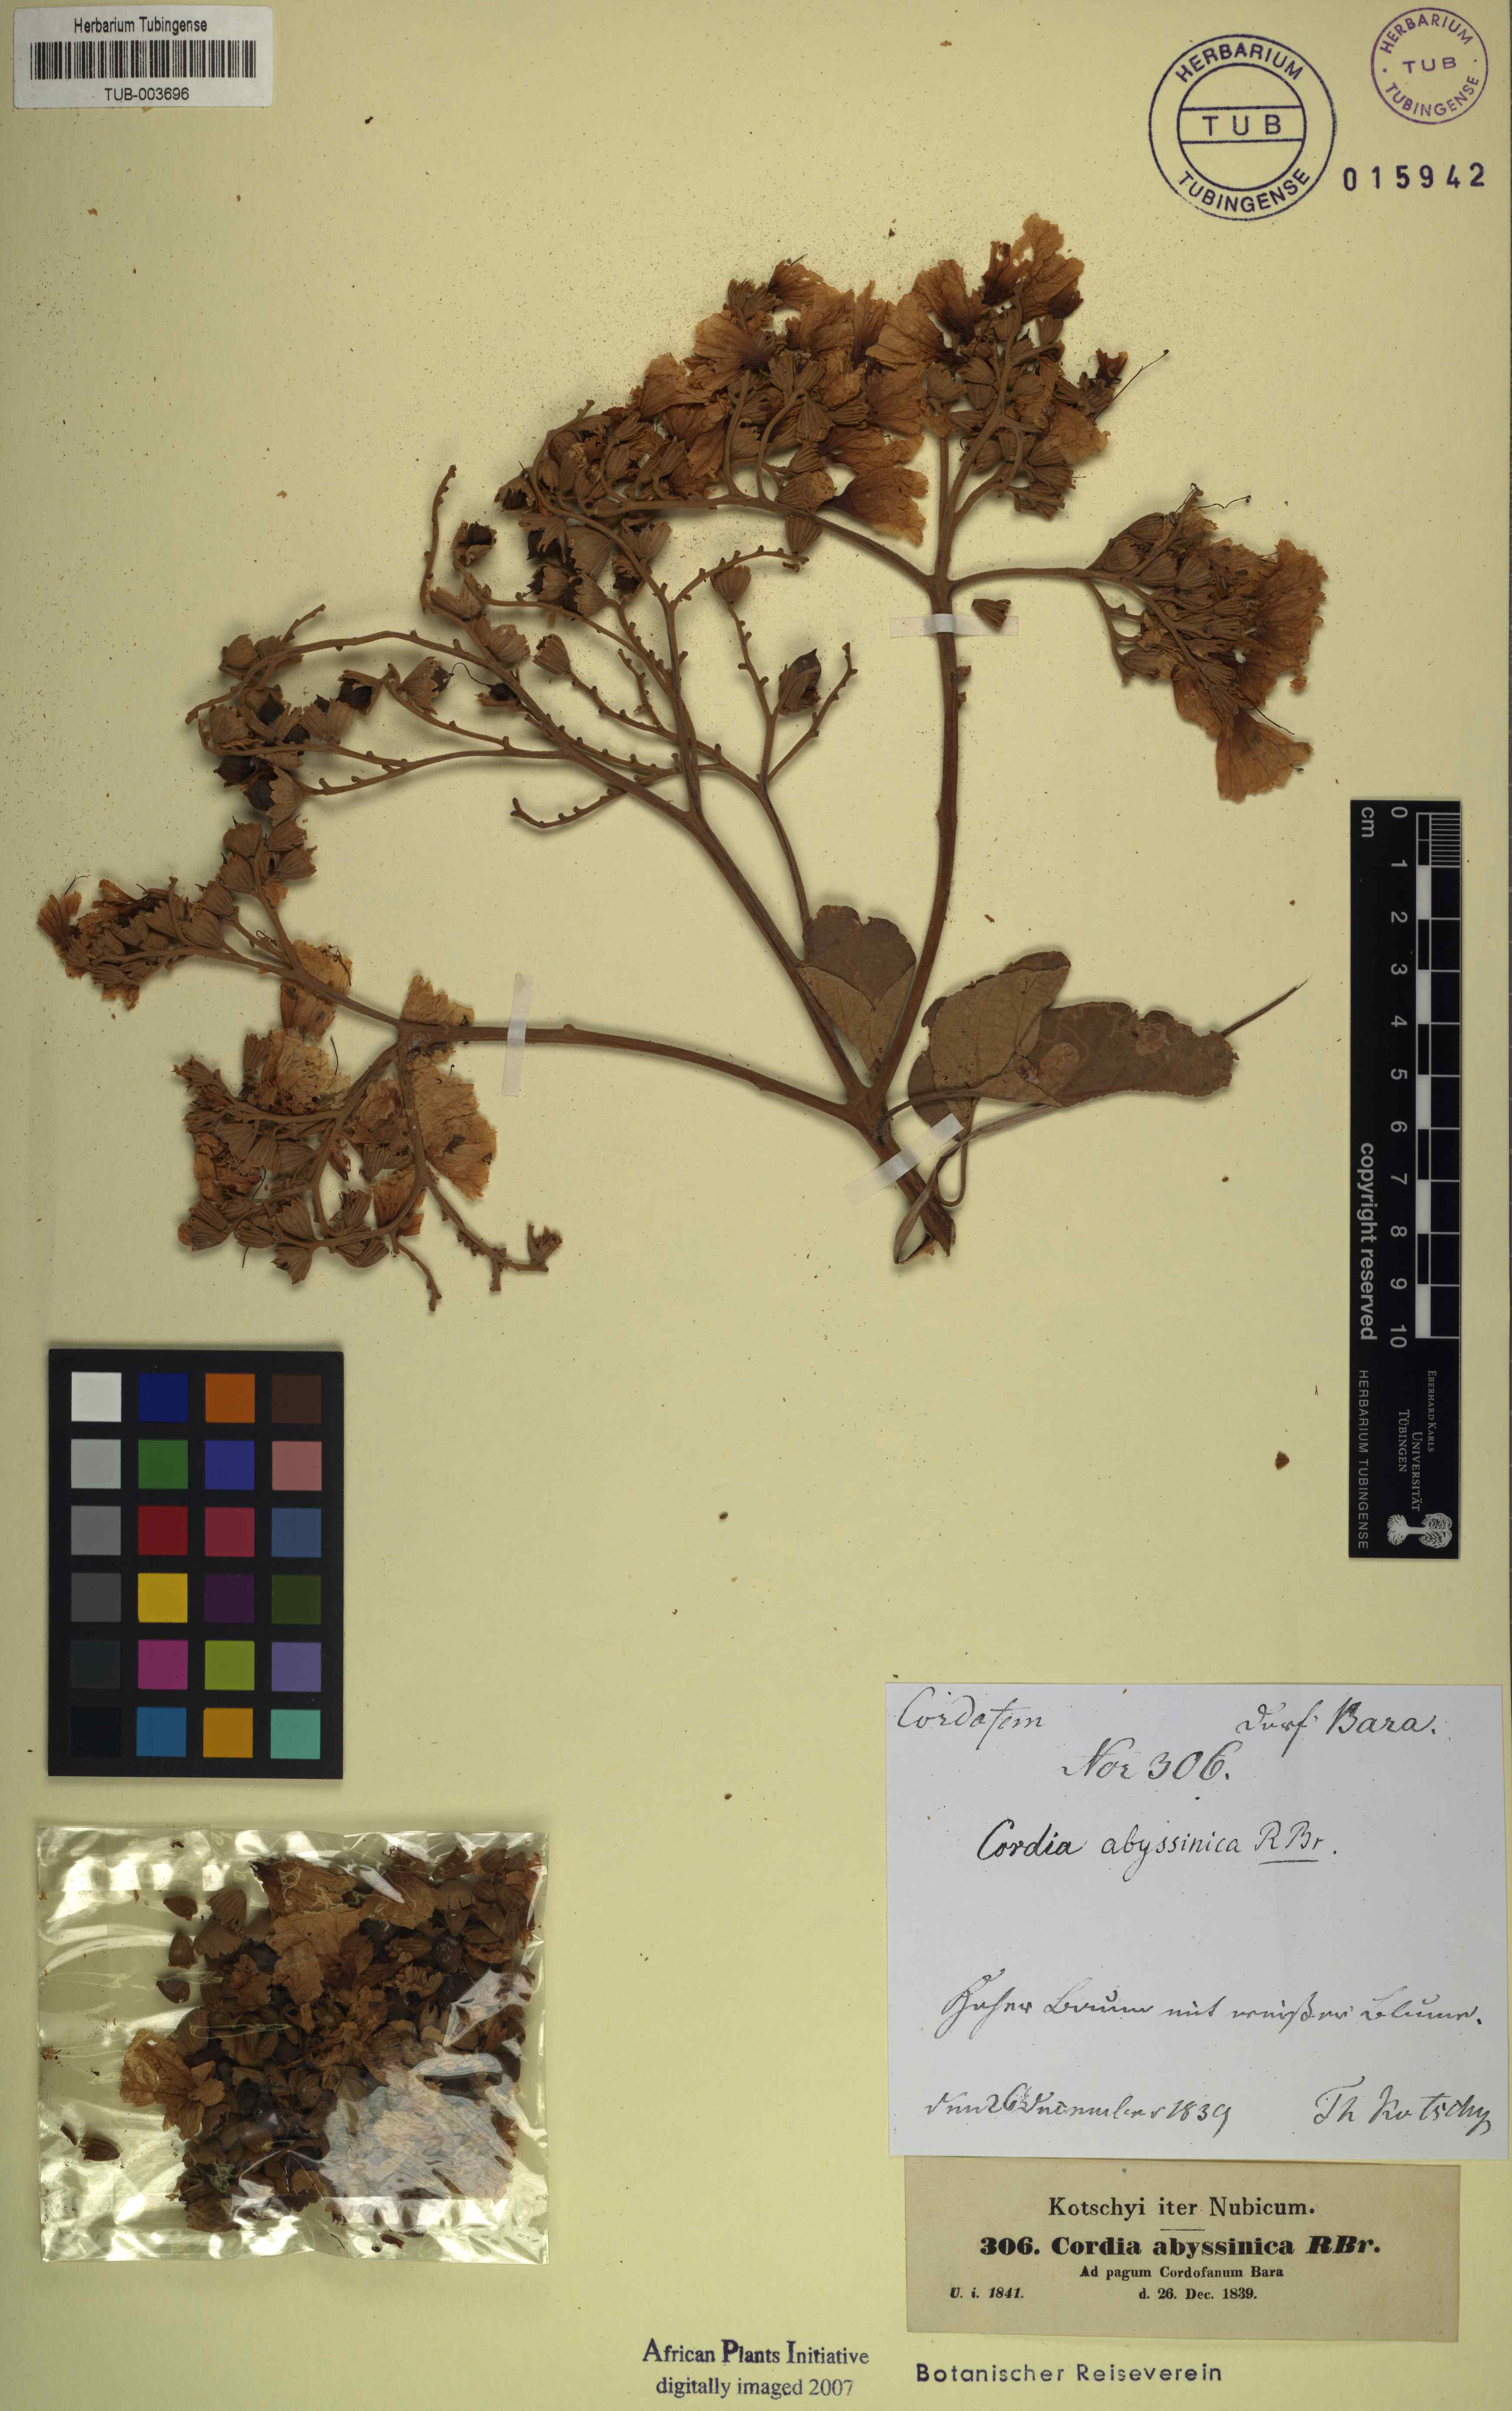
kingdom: Plantae
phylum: Tracheophyta
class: Magnoliopsida
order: Boraginales
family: Cordiaceae
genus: Cordia
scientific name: Cordia crenata
